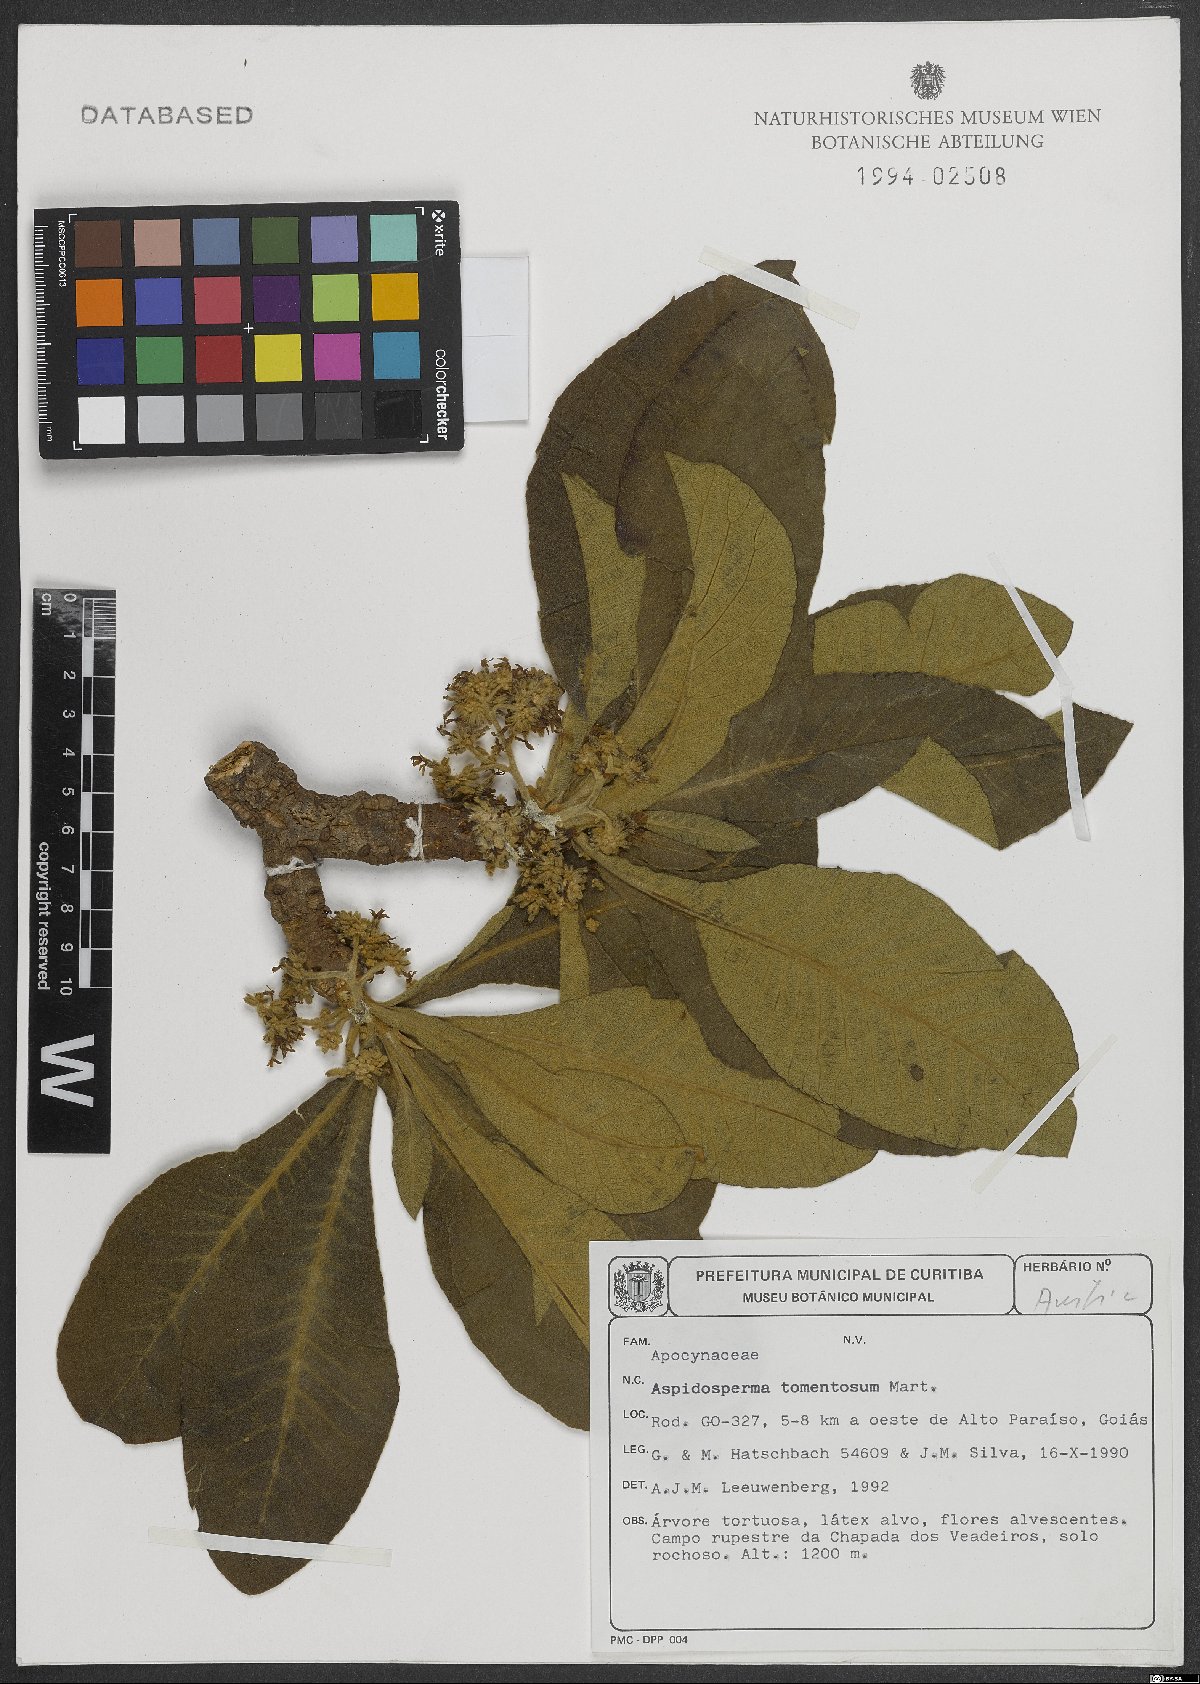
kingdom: Plantae
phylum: Tracheophyta
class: Magnoliopsida
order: Gentianales
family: Apocynaceae
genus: Aspidosperma
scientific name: Aspidosperma tomentosum
